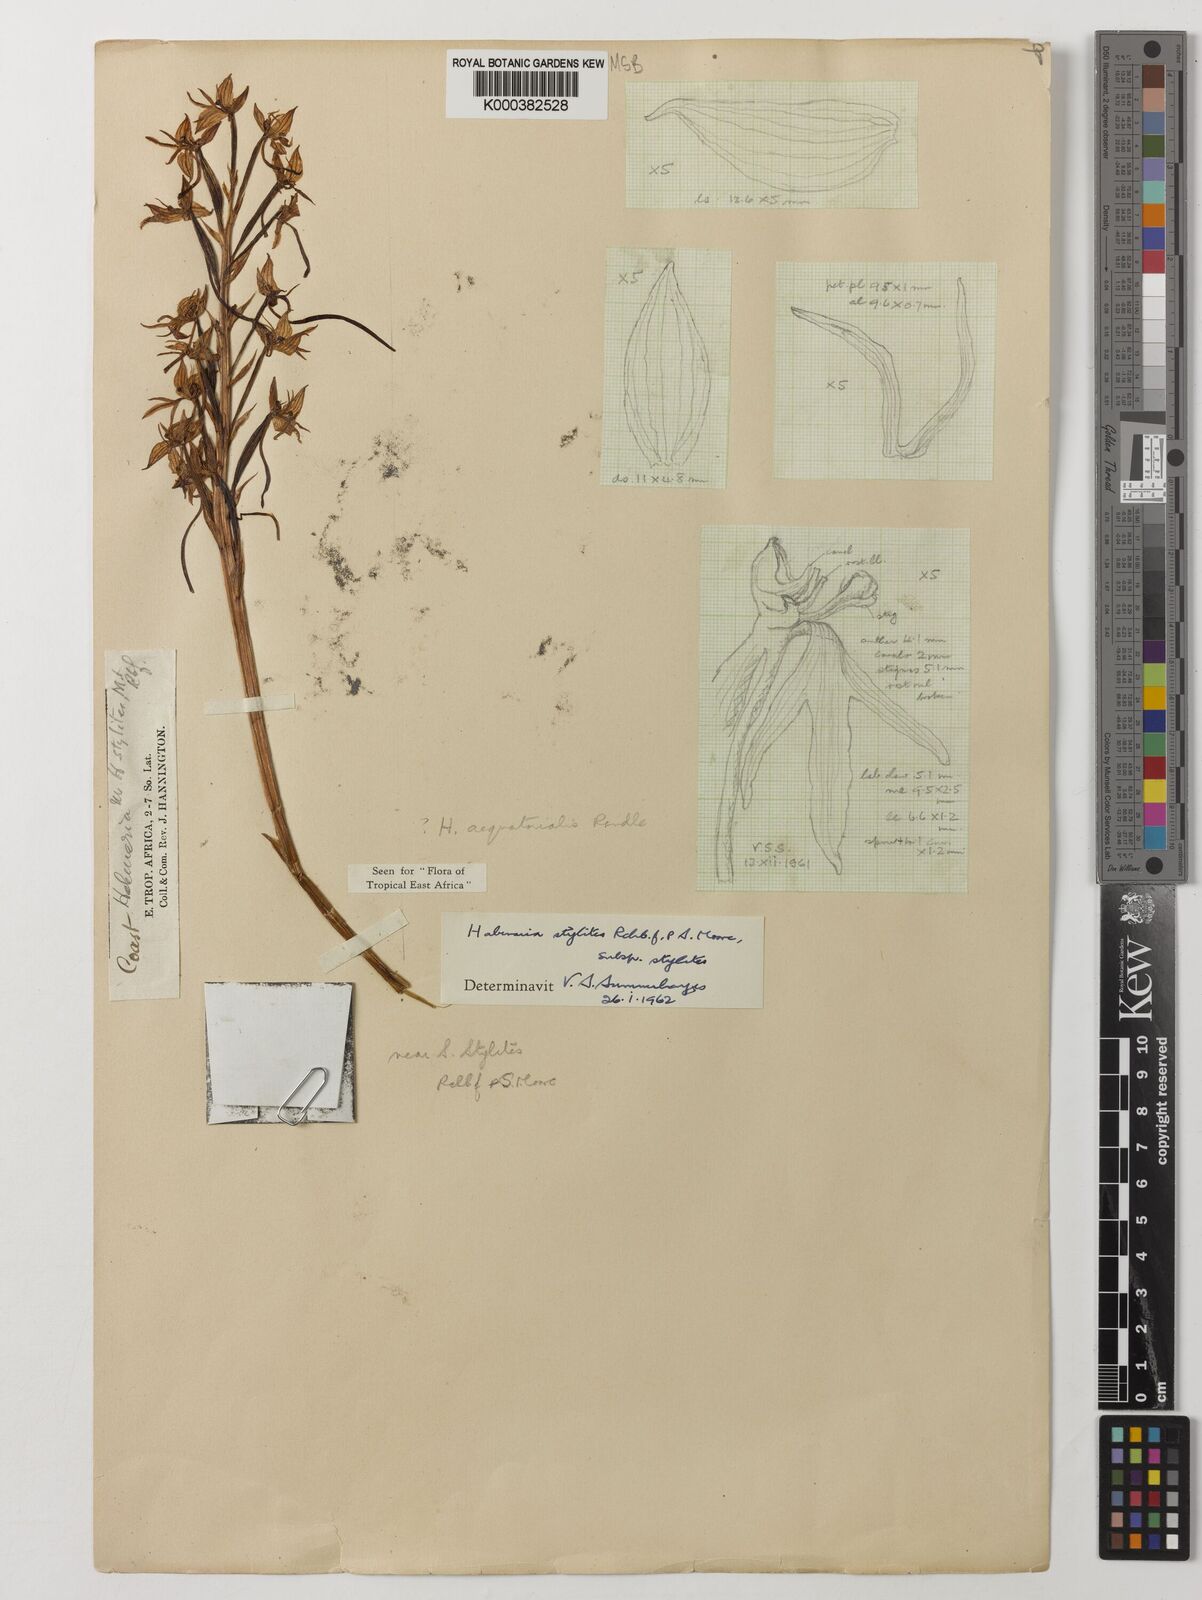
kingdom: Plantae
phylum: Tracheophyta
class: Liliopsida
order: Asparagales
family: Orchidaceae
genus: Habenaria
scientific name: Habenaria stylites
